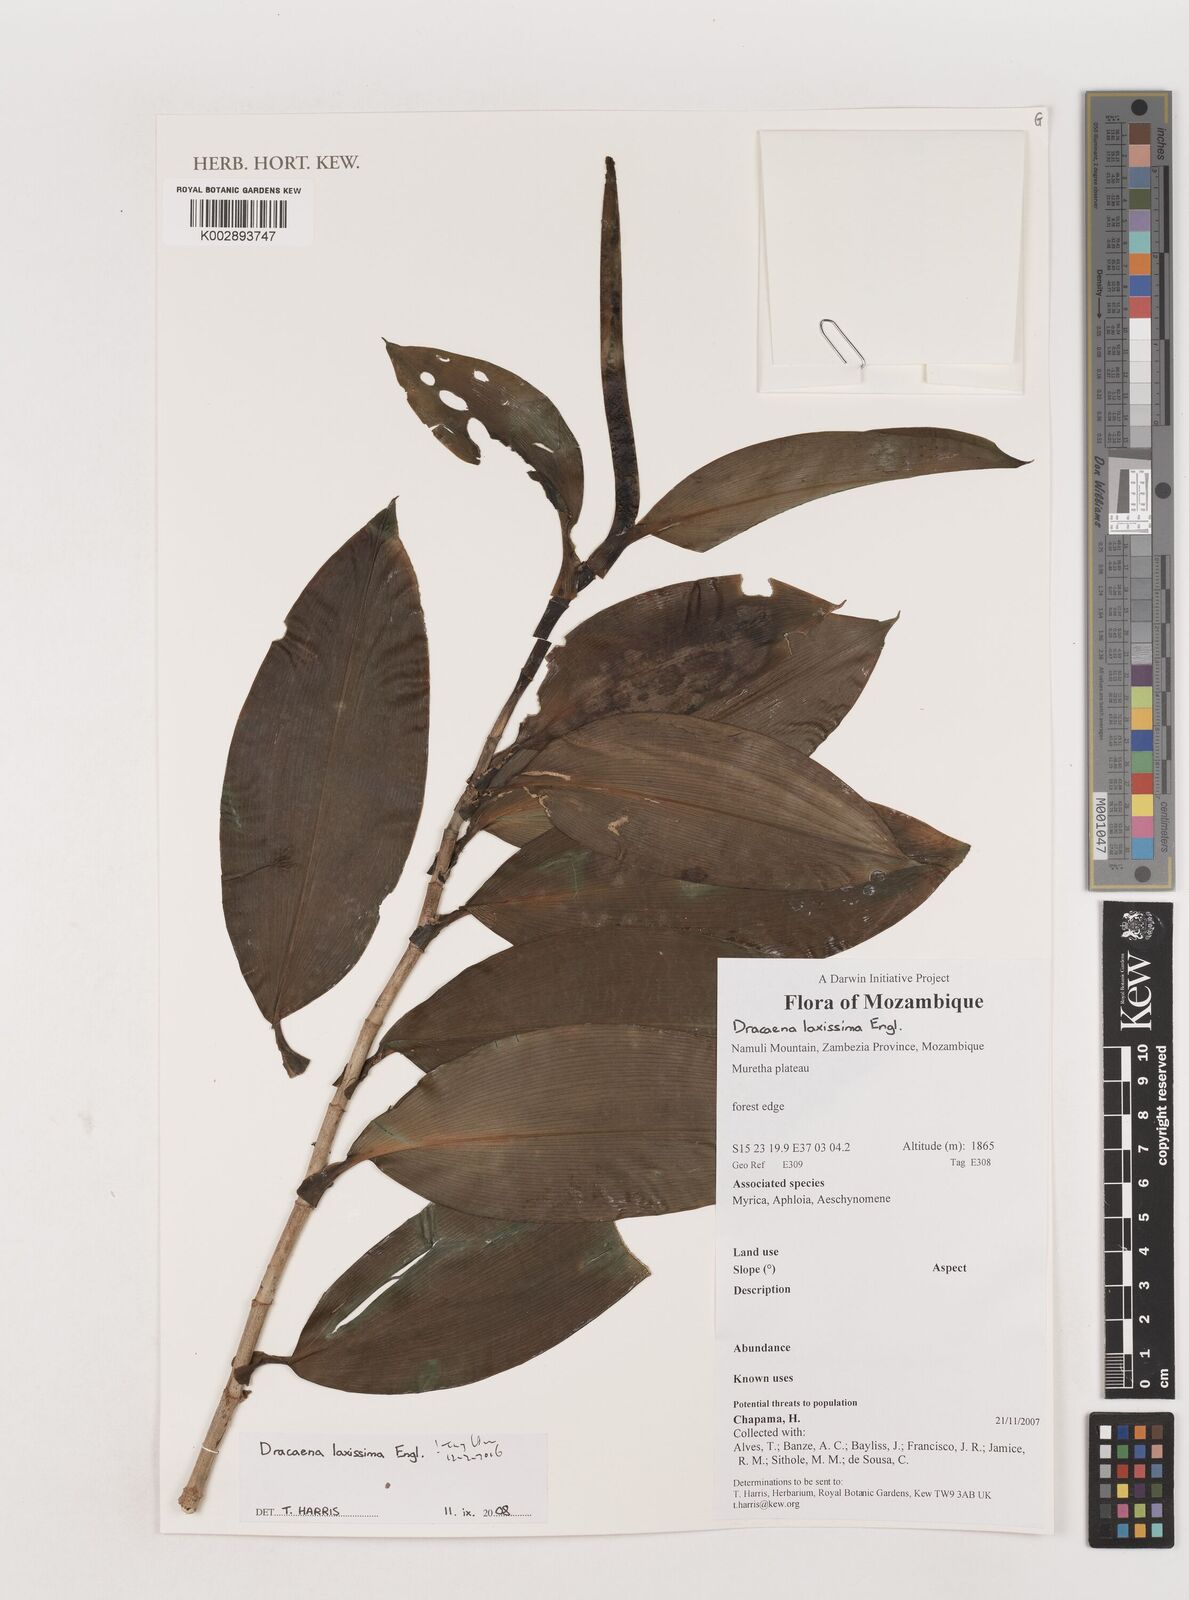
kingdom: Plantae
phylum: Tracheophyta
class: Liliopsida
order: Asparagales
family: Asparagaceae
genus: Dracaena
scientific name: Dracaena laxissima
